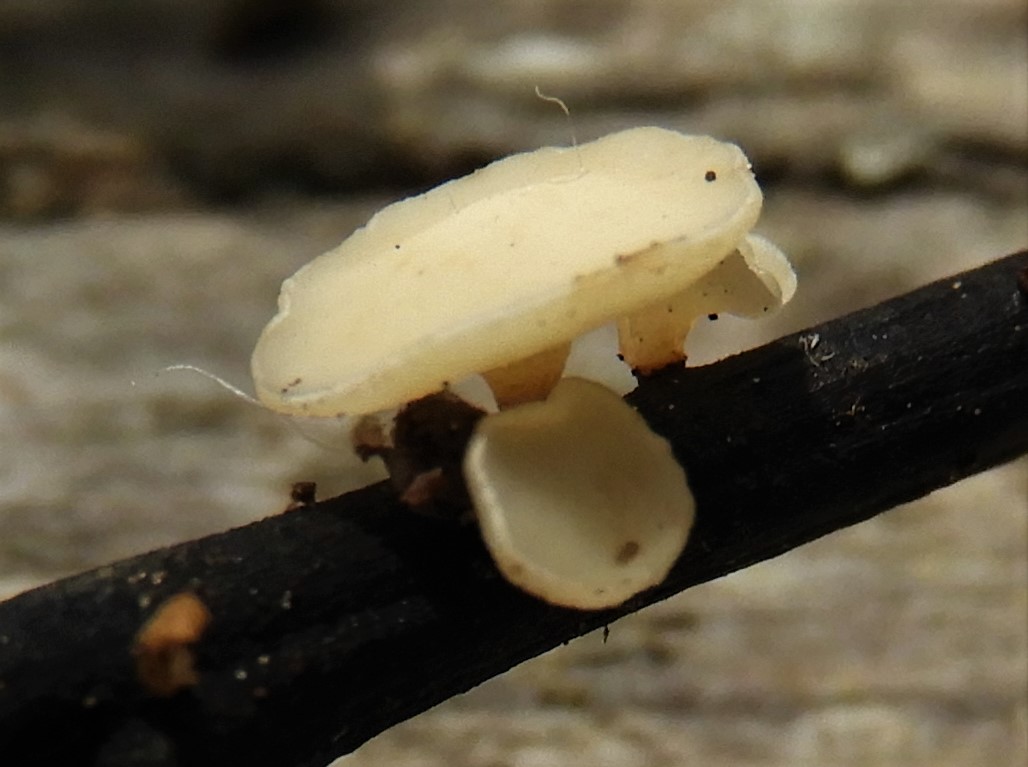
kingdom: Fungi
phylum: Ascomycota
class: Leotiomycetes
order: Helotiales
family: Helotiaceae
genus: Hymenoscyphus
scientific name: Hymenoscyphus fraxineus
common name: asketoptørre-stilkskive
